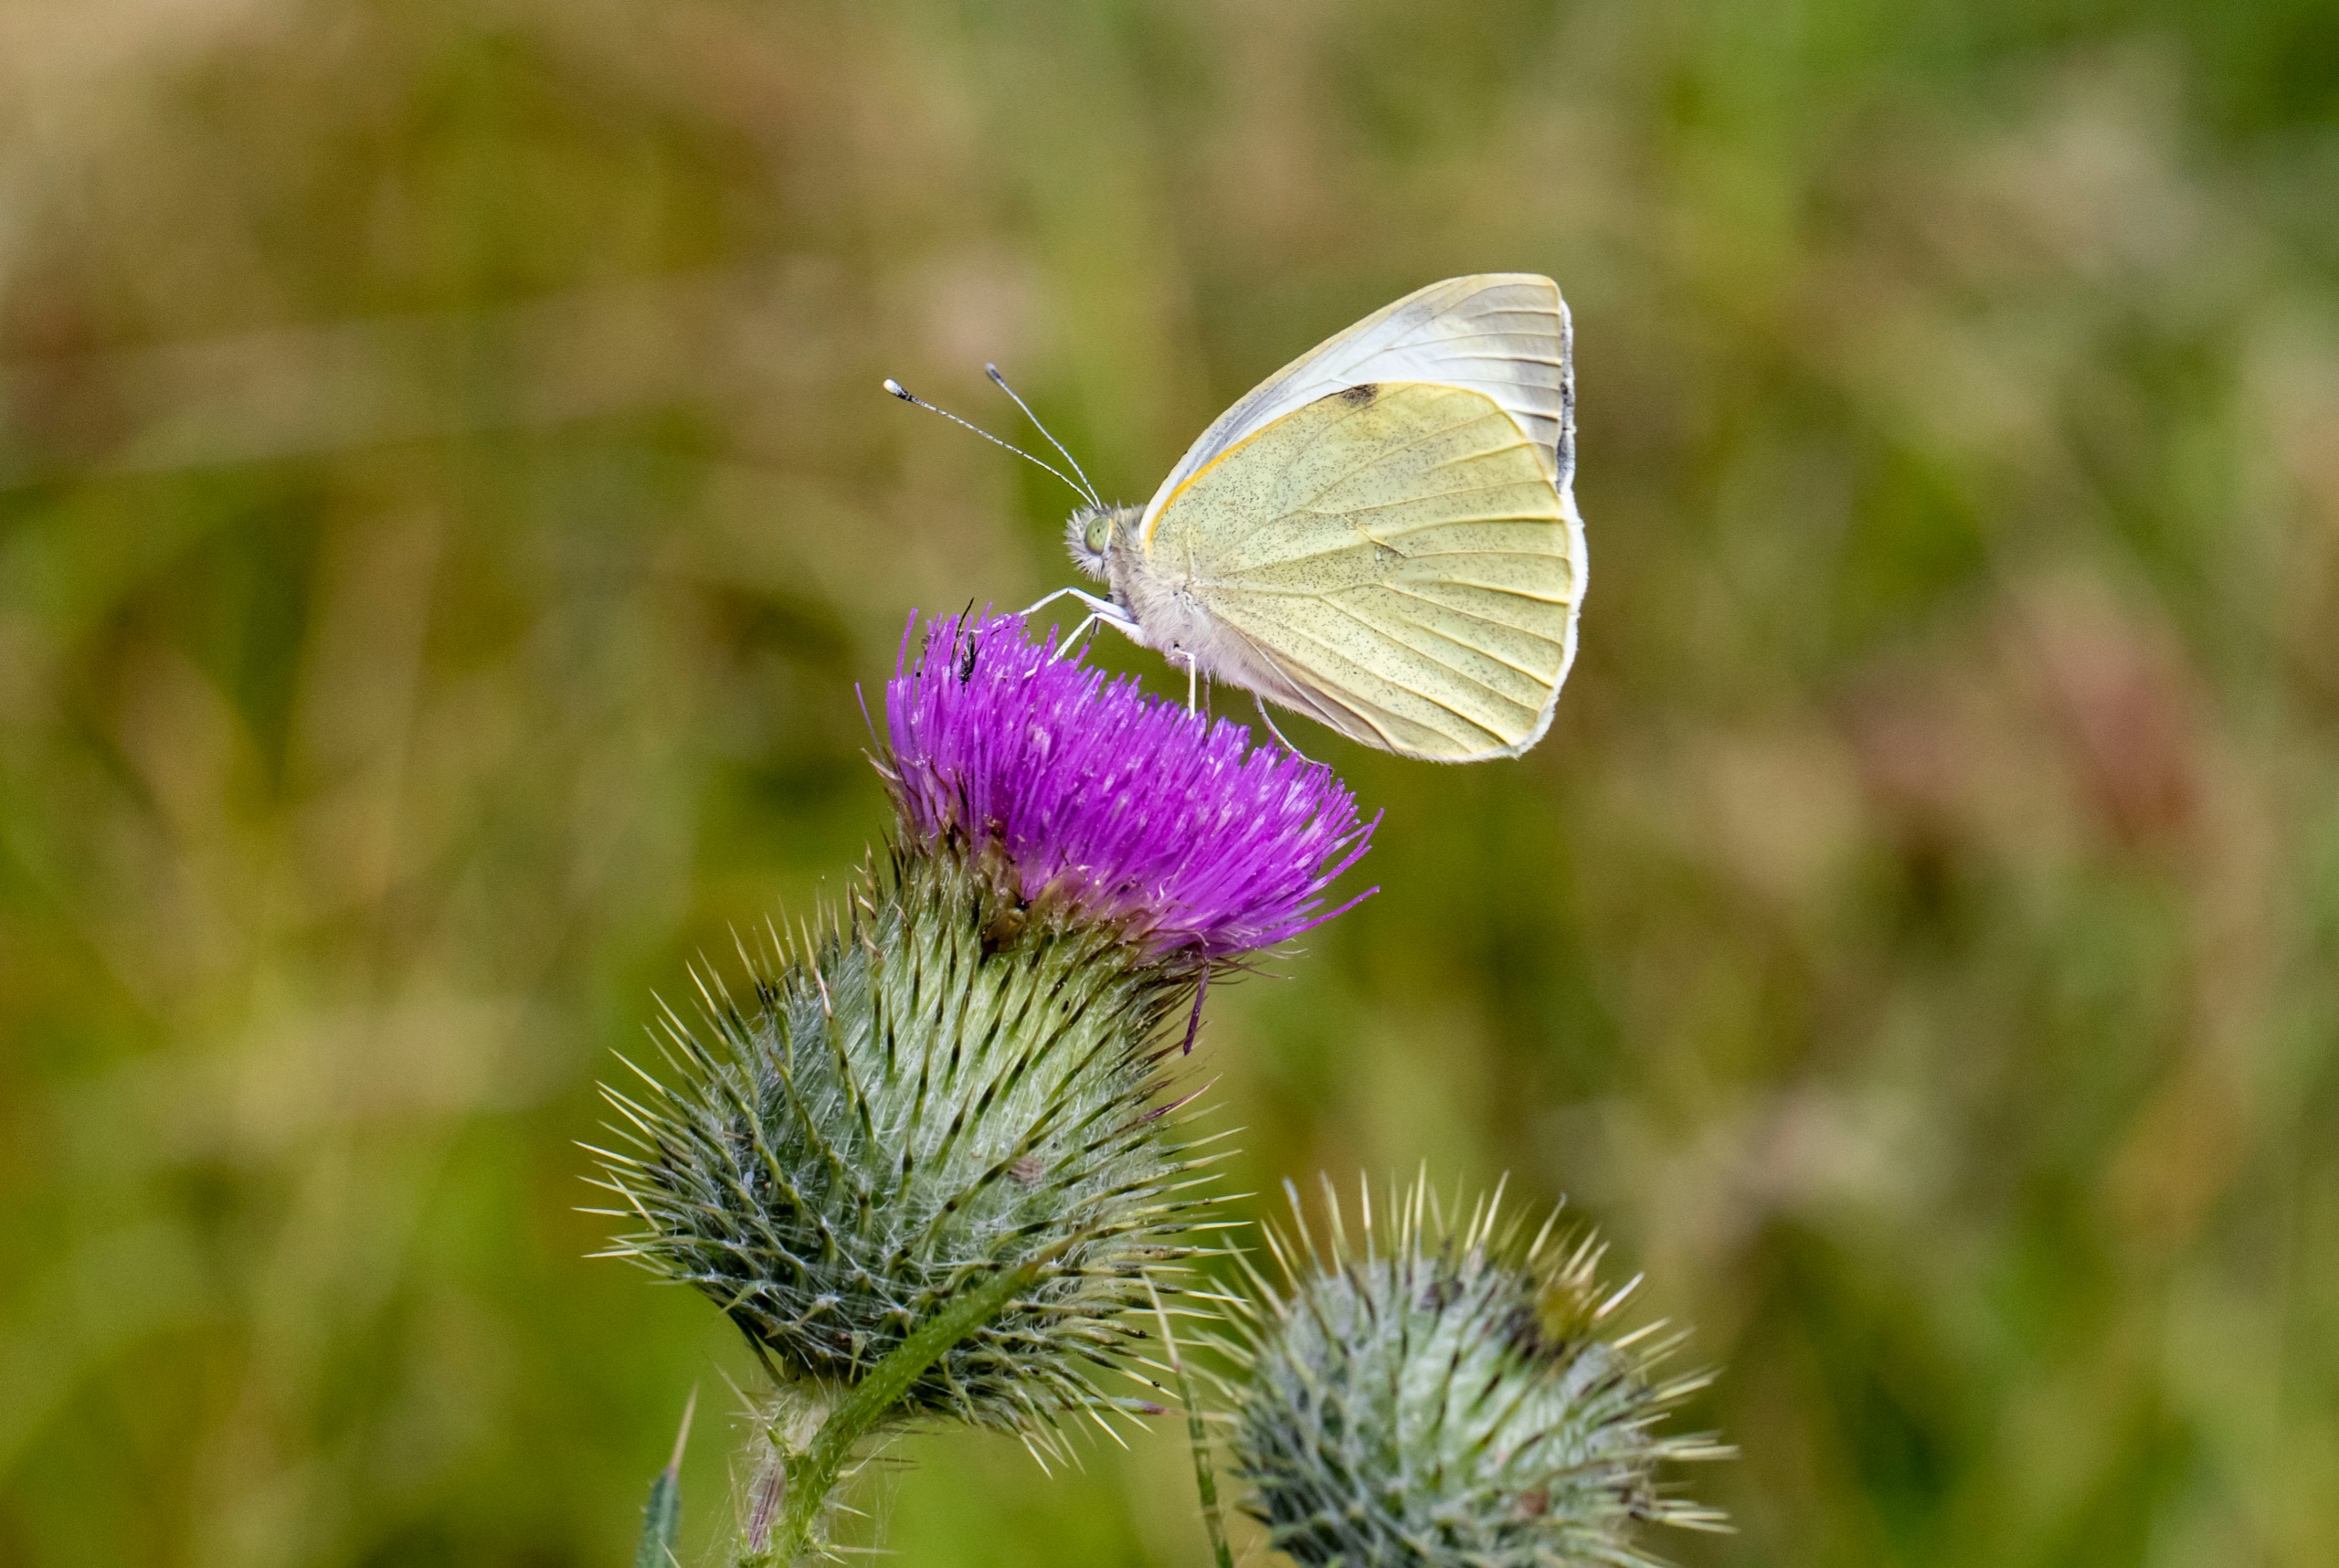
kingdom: Animalia
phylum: Arthropoda
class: Insecta
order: Lepidoptera
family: Pieridae
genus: Pieris
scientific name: Pieris brassicae
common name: Stor kålsommerfugl
